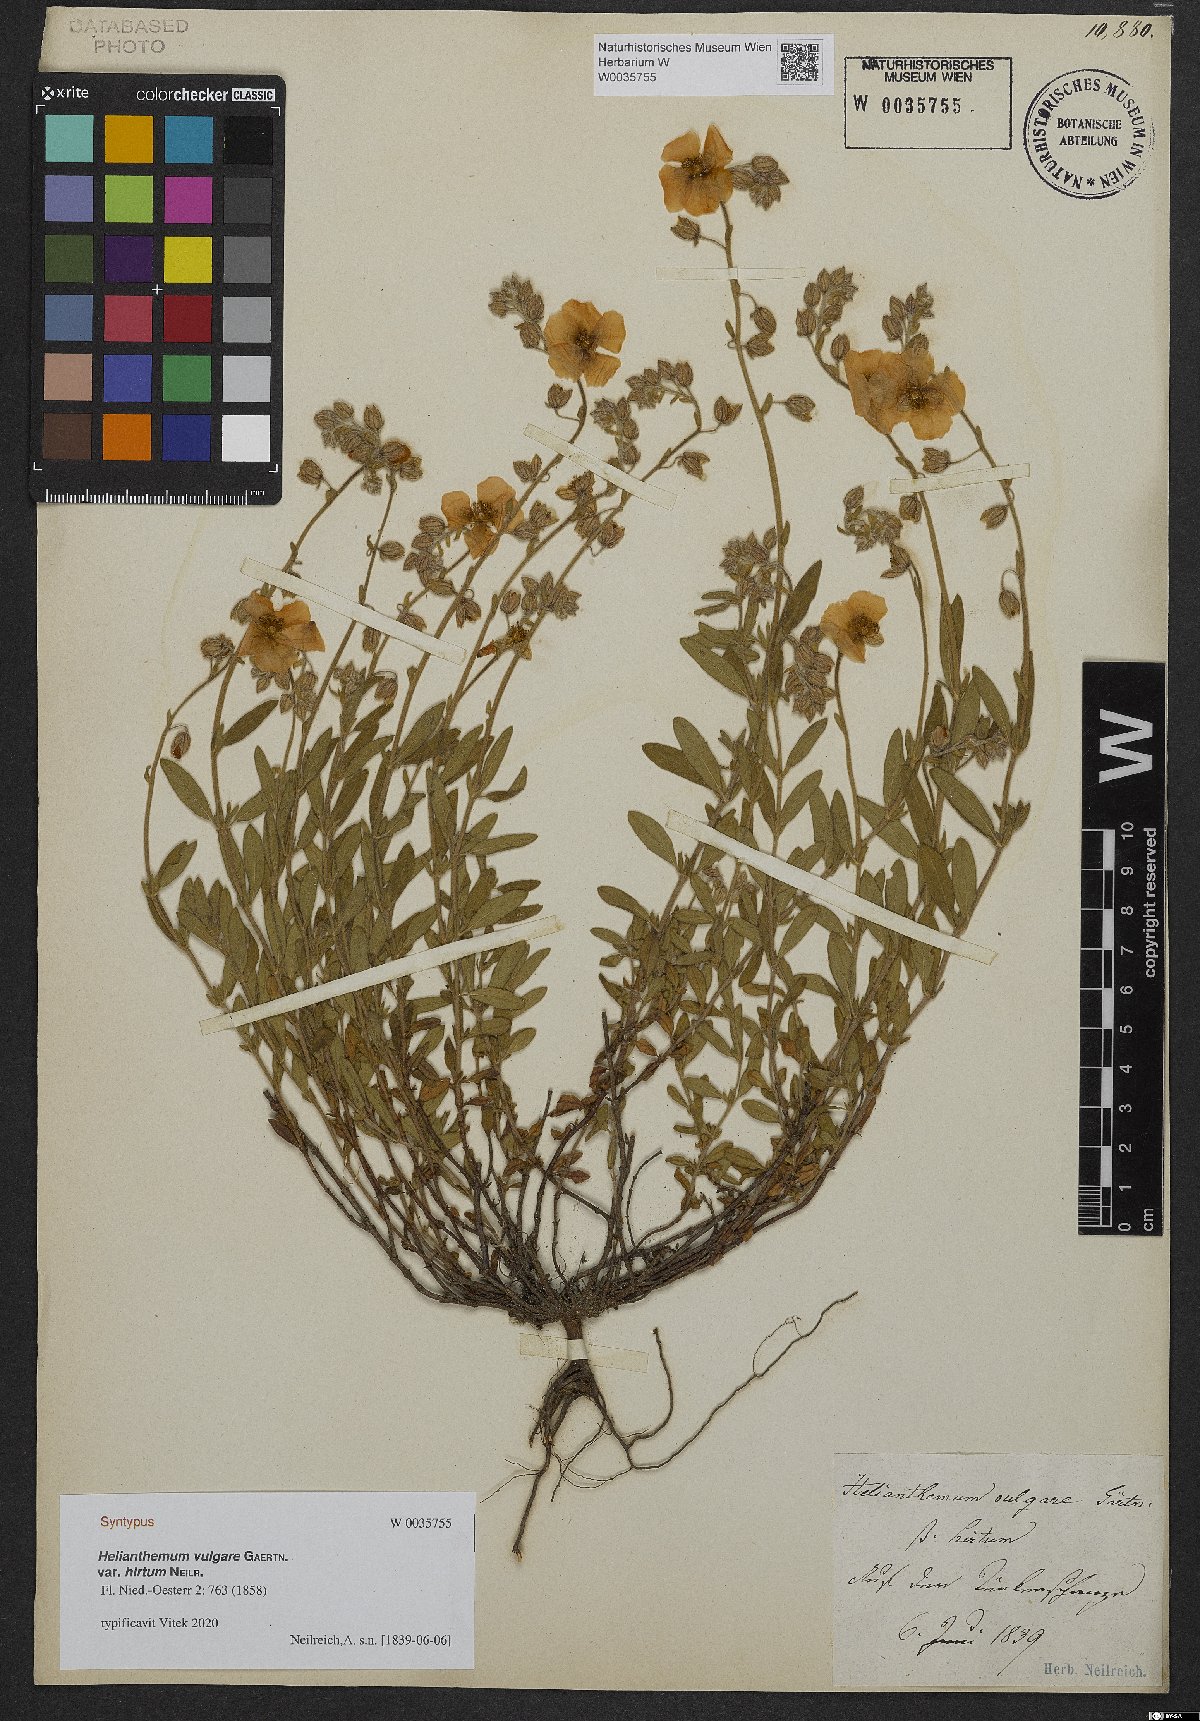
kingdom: Plantae
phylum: Tracheophyta
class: Magnoliopsida
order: Malvales
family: Cistaceae
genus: Helianthemum
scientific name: Helianthemum hirtum
